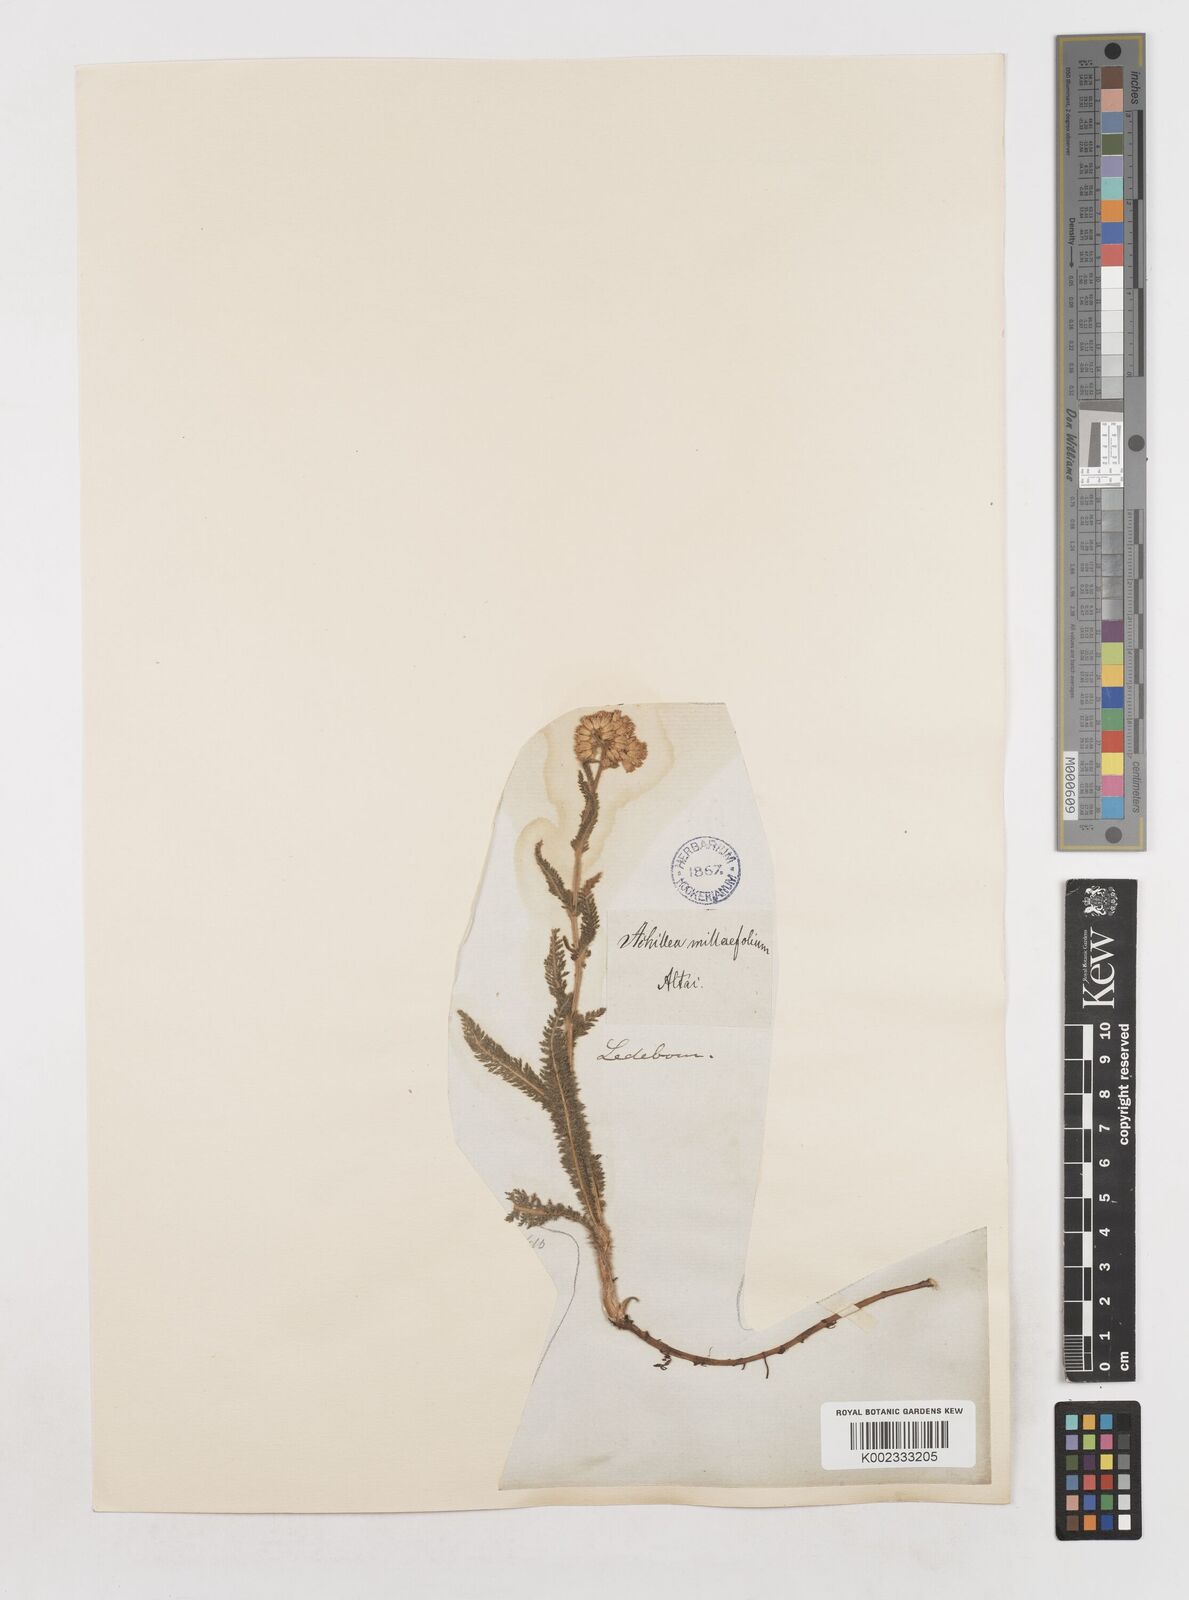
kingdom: Plantae
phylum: Tracheophyta
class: Magnoliopsida
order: Asterales
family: Asteraceae
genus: Achillea
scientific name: Achillea millefolium
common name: Yarrow
